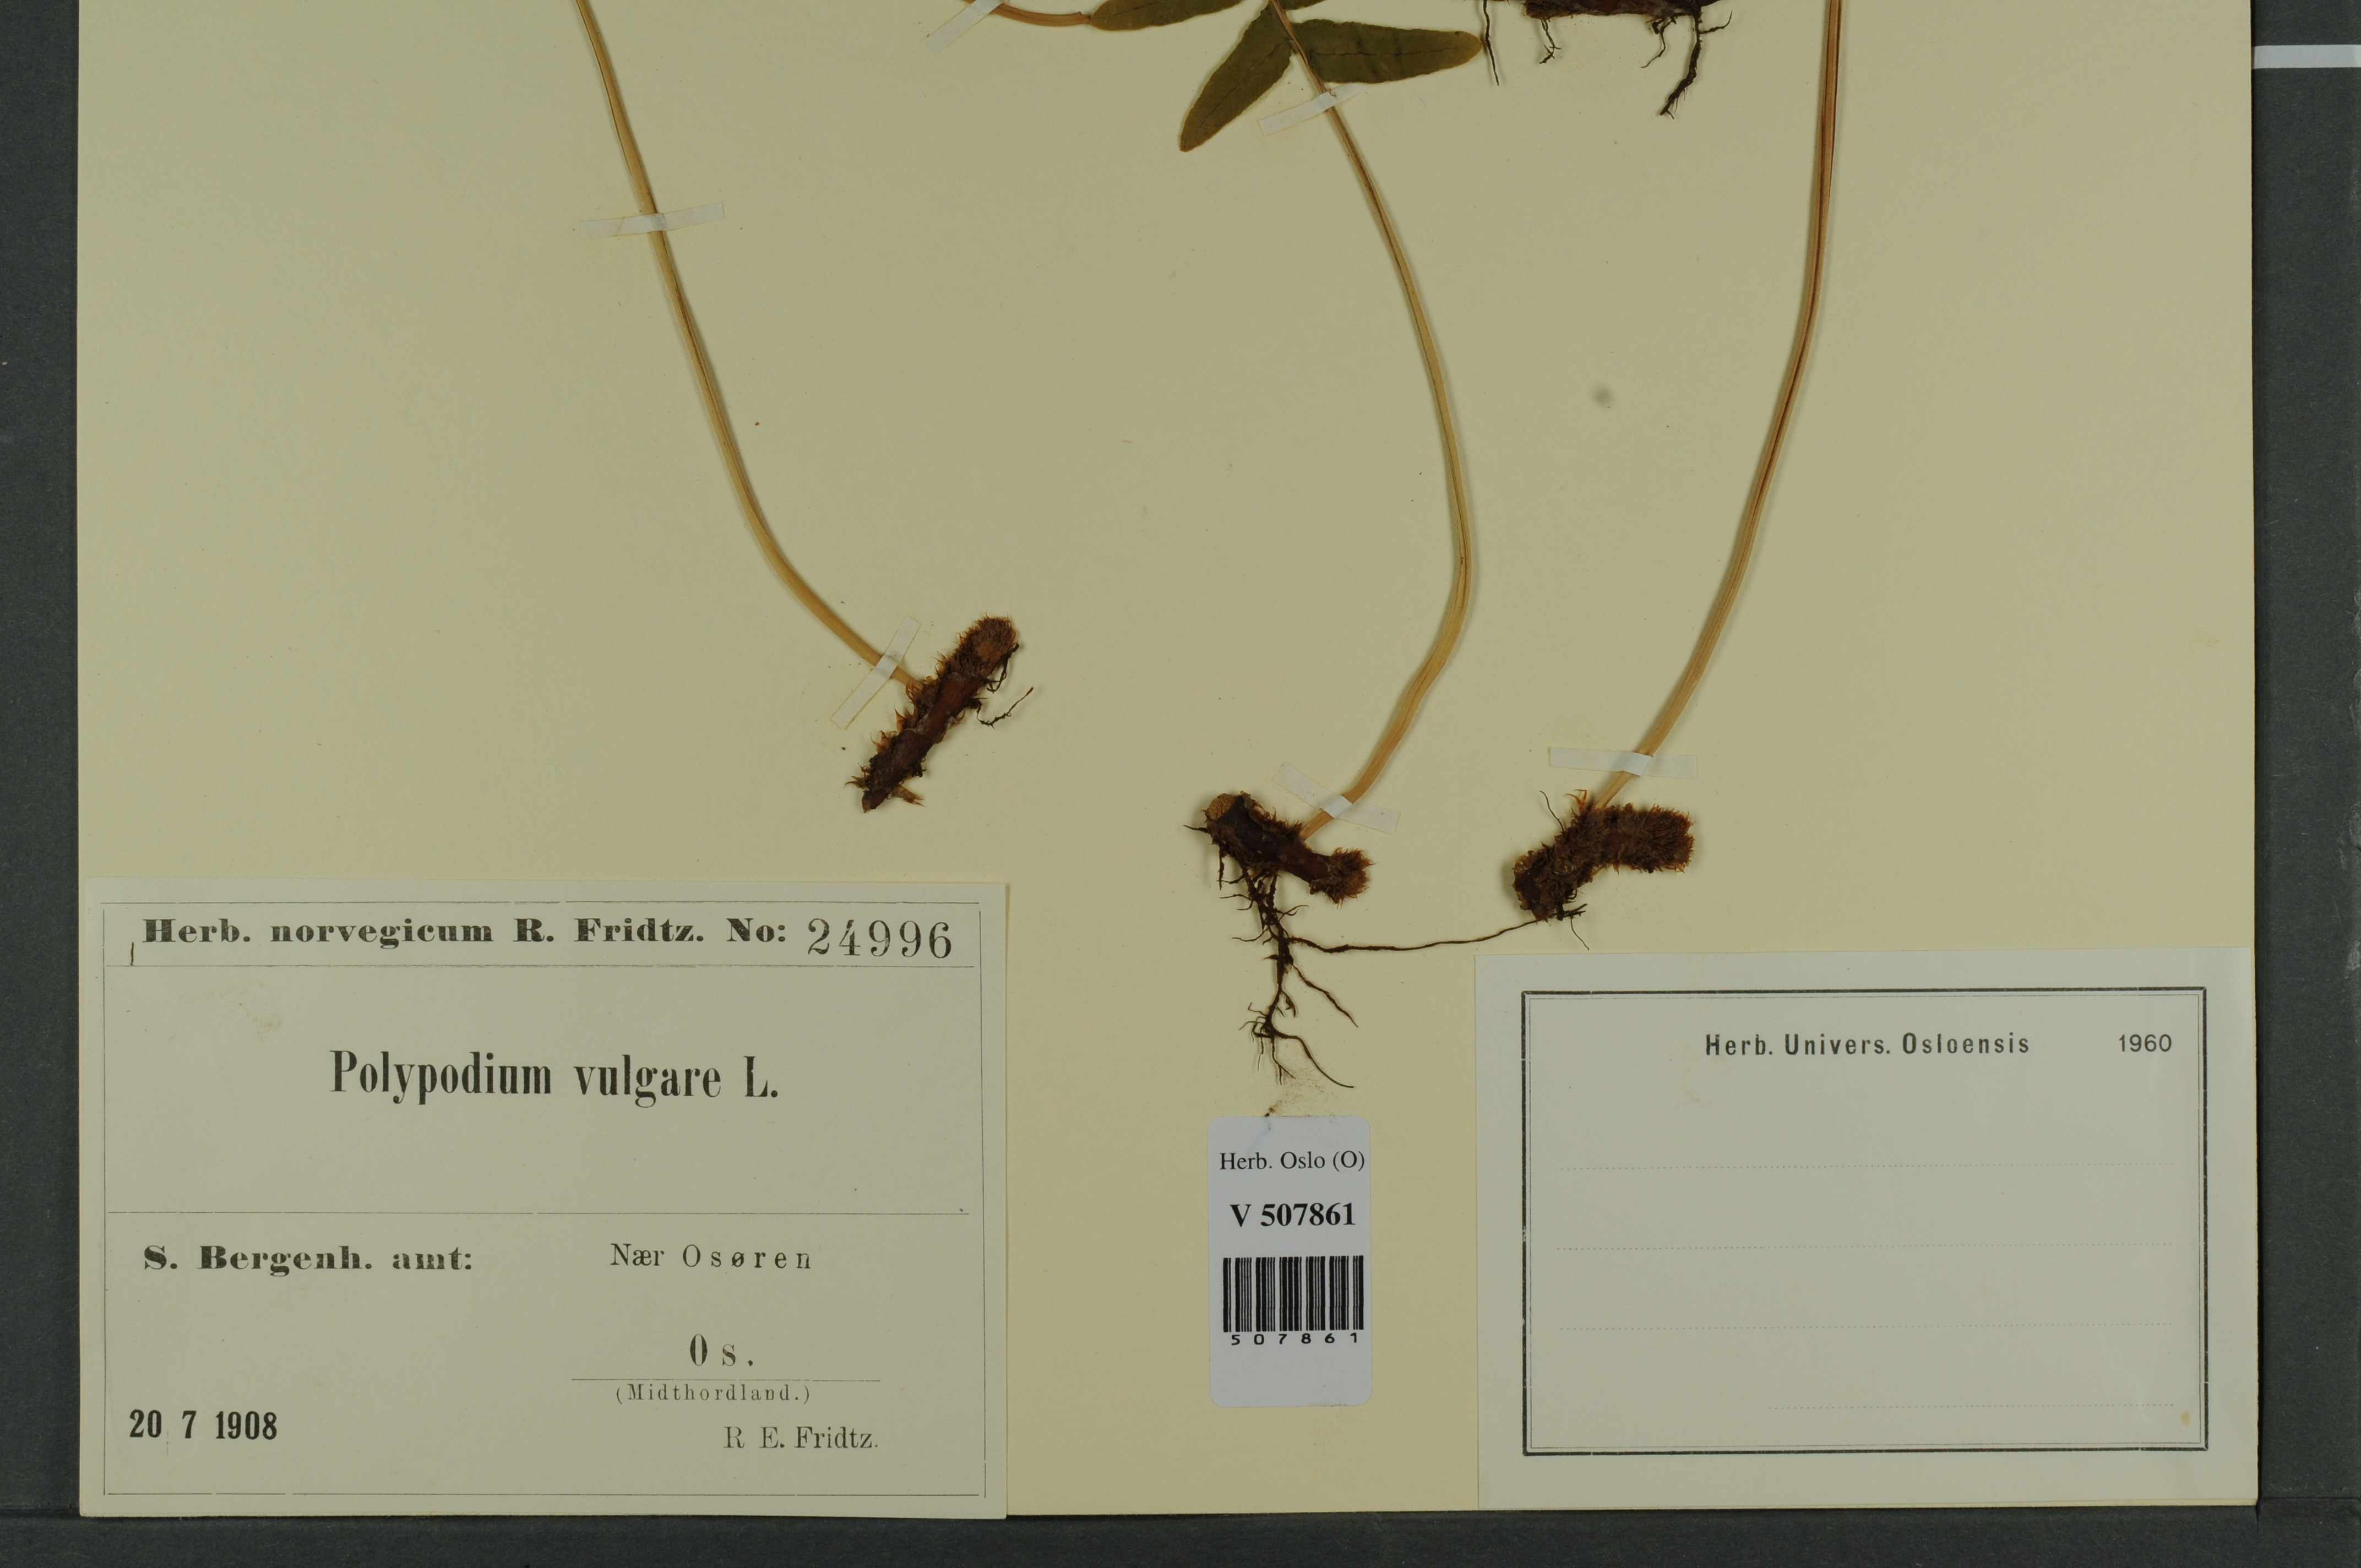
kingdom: Plantae
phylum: Tracheophyta
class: Polypodiopsida
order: Polypodiales
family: Polypodiaceae
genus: Polypodium
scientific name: Polypodium vulgare
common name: Common polypody
